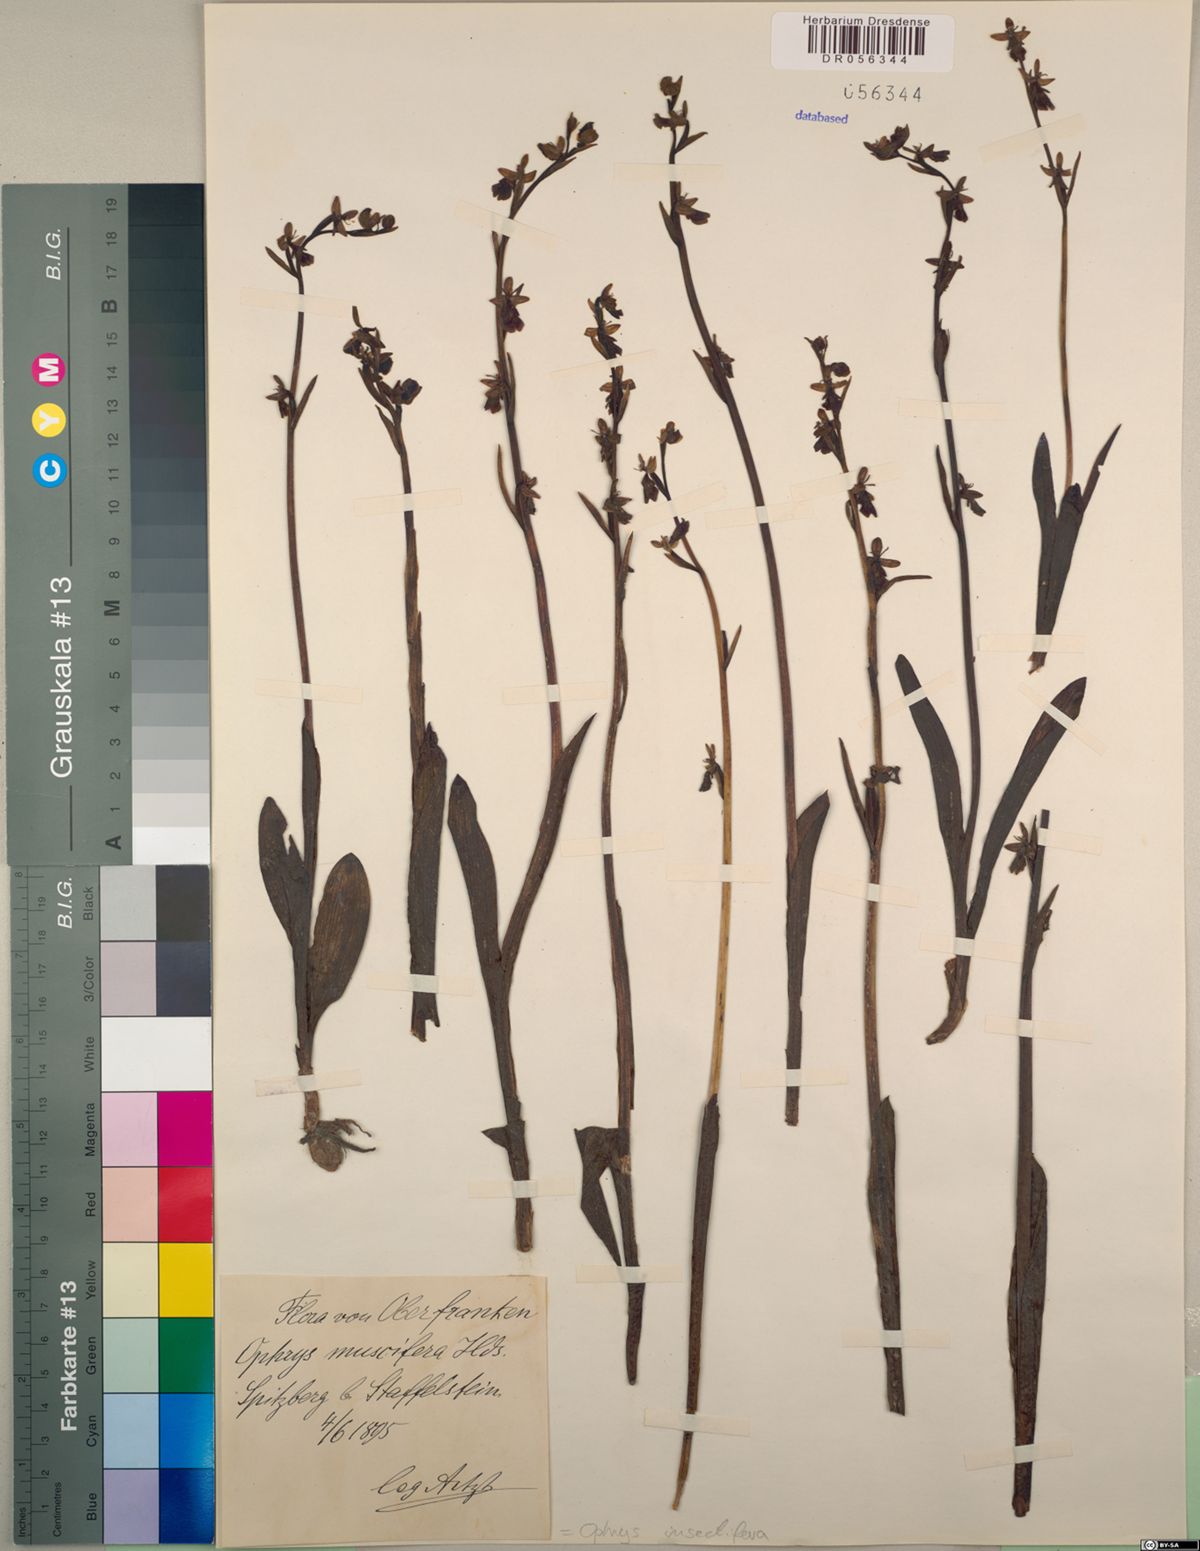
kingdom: Plantae
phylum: Tracheophyta
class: Liliopsida
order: Asparagales
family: Orchidaceae
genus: Ophrys
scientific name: Ophrys insectifera
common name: Fly orchid
